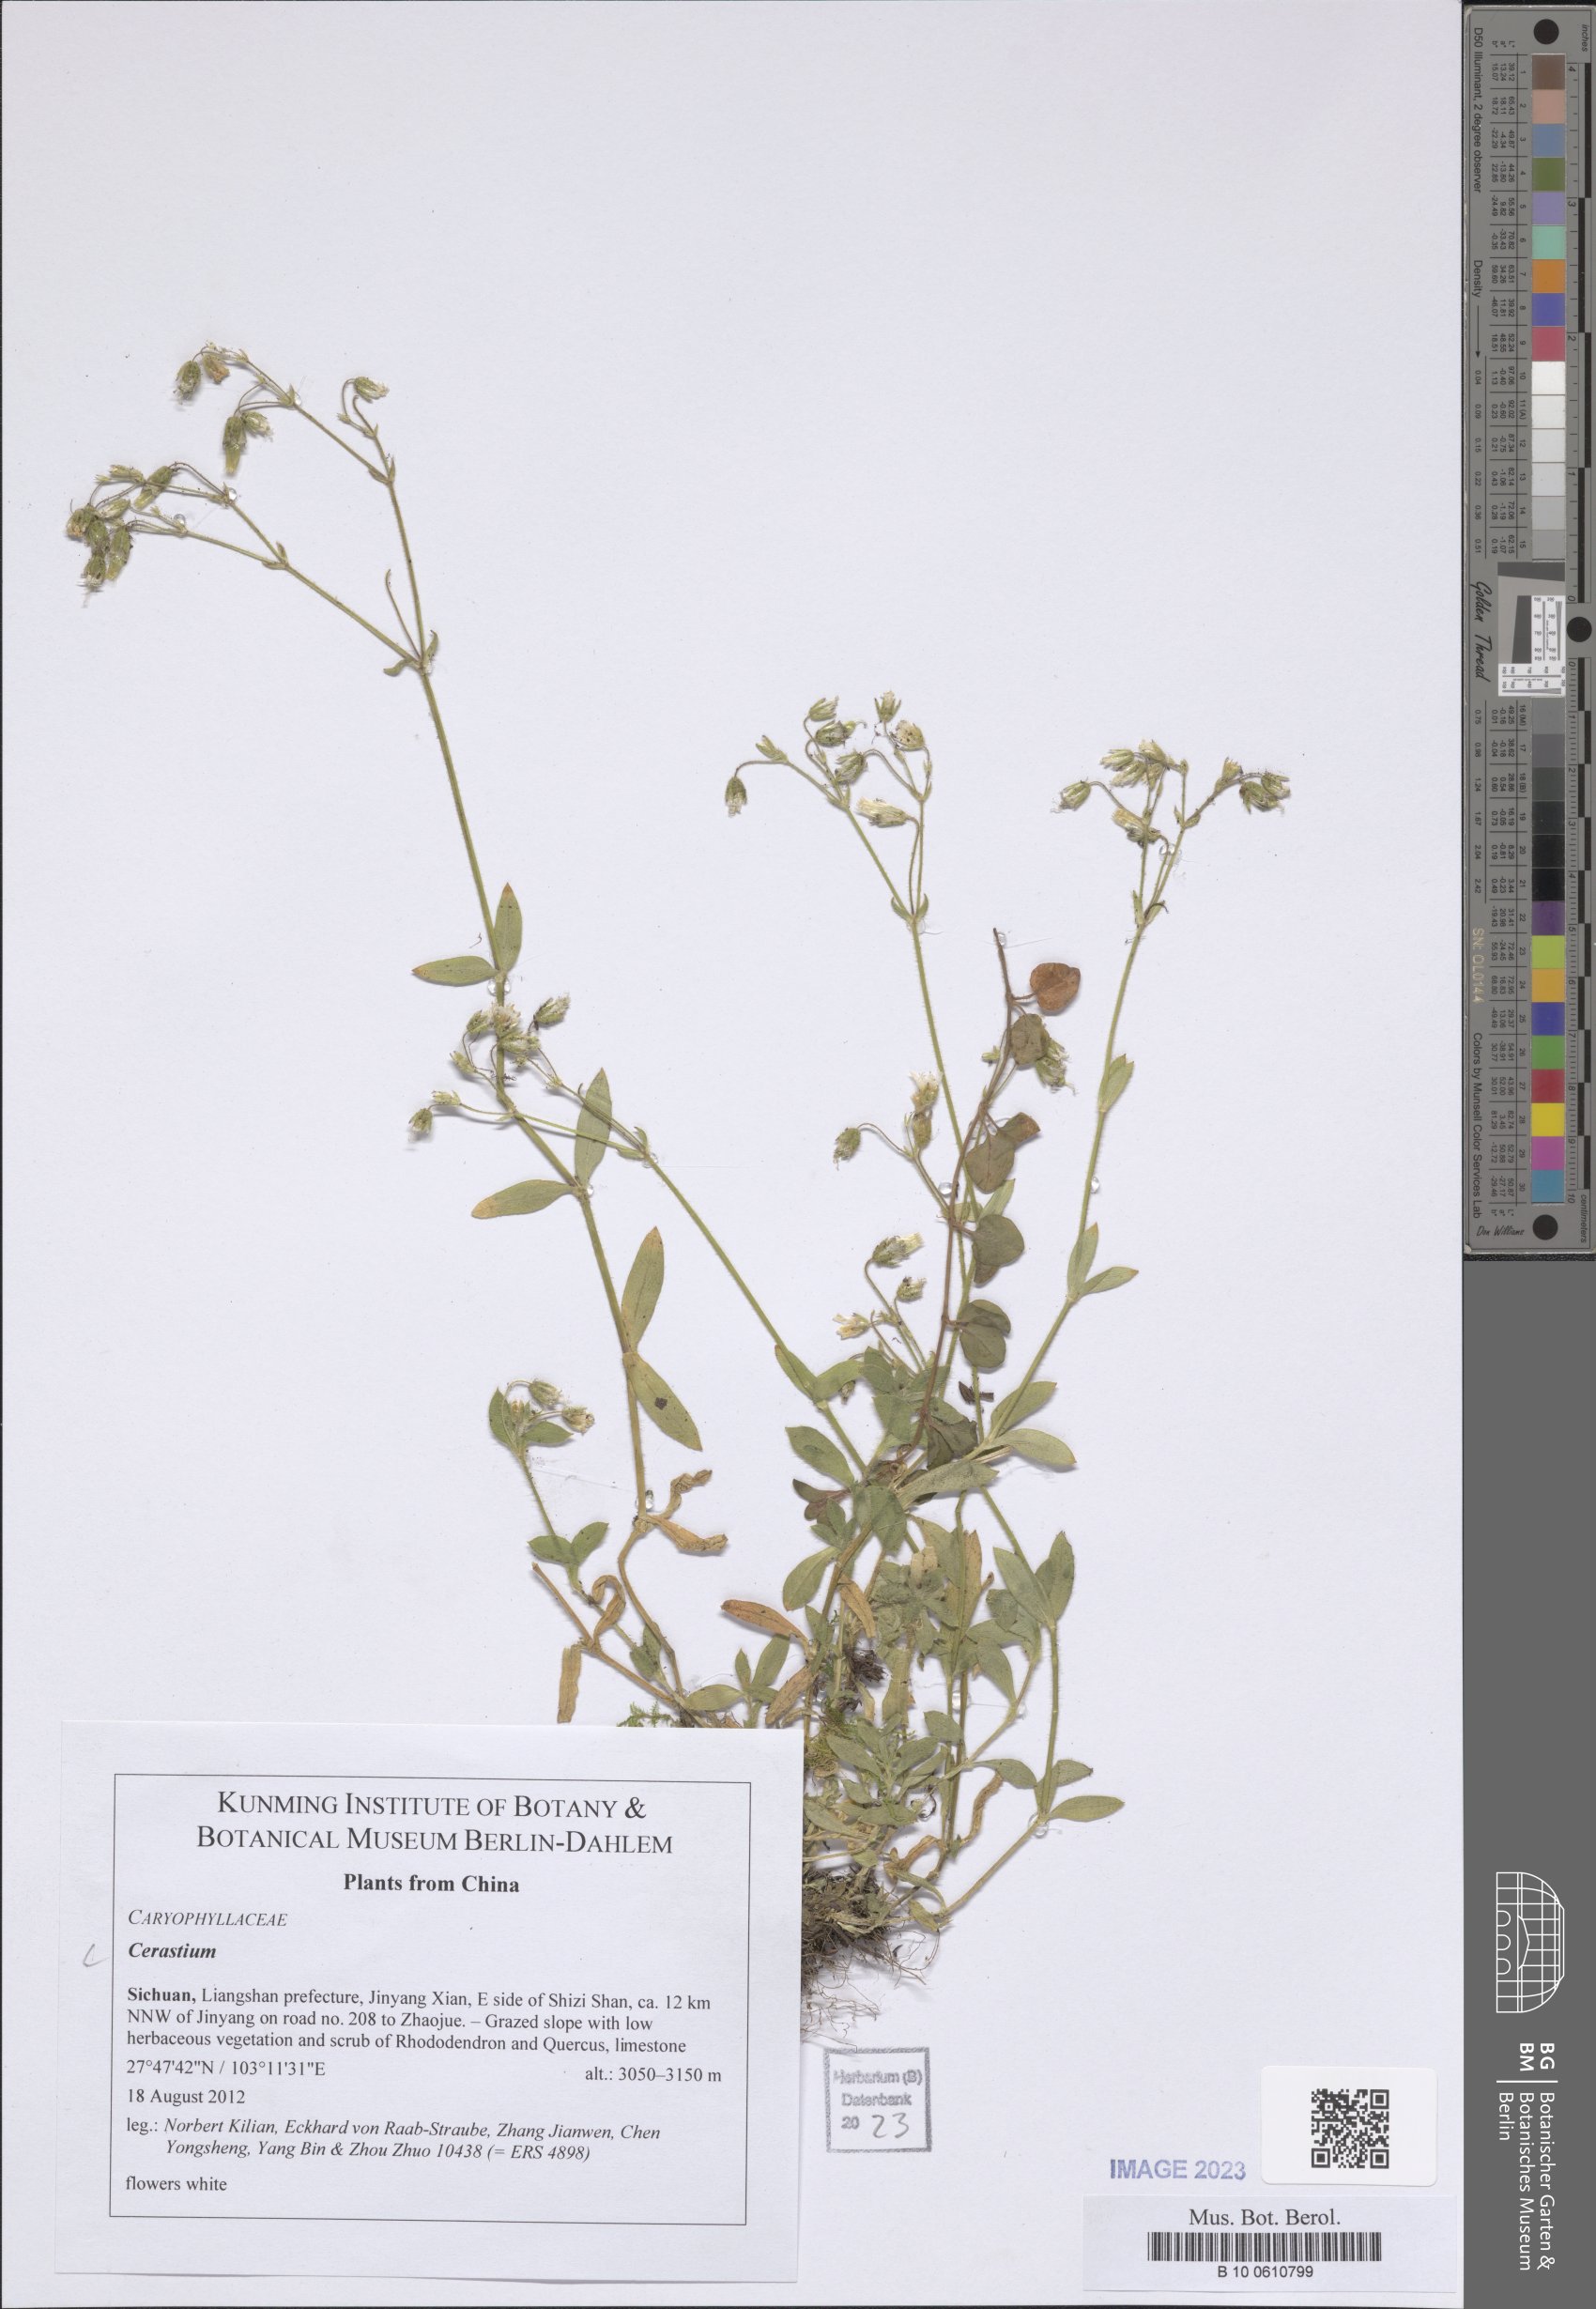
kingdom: Plantae
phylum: Tracheophyta
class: Magnoliopsida
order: Caryophyllales
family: Caryophyllaceae
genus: Cerastium
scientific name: Cerastium
